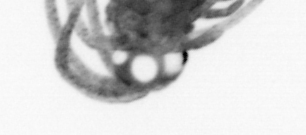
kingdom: Animalia
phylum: Annelida
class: Polychaeta
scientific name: Polychaeta
